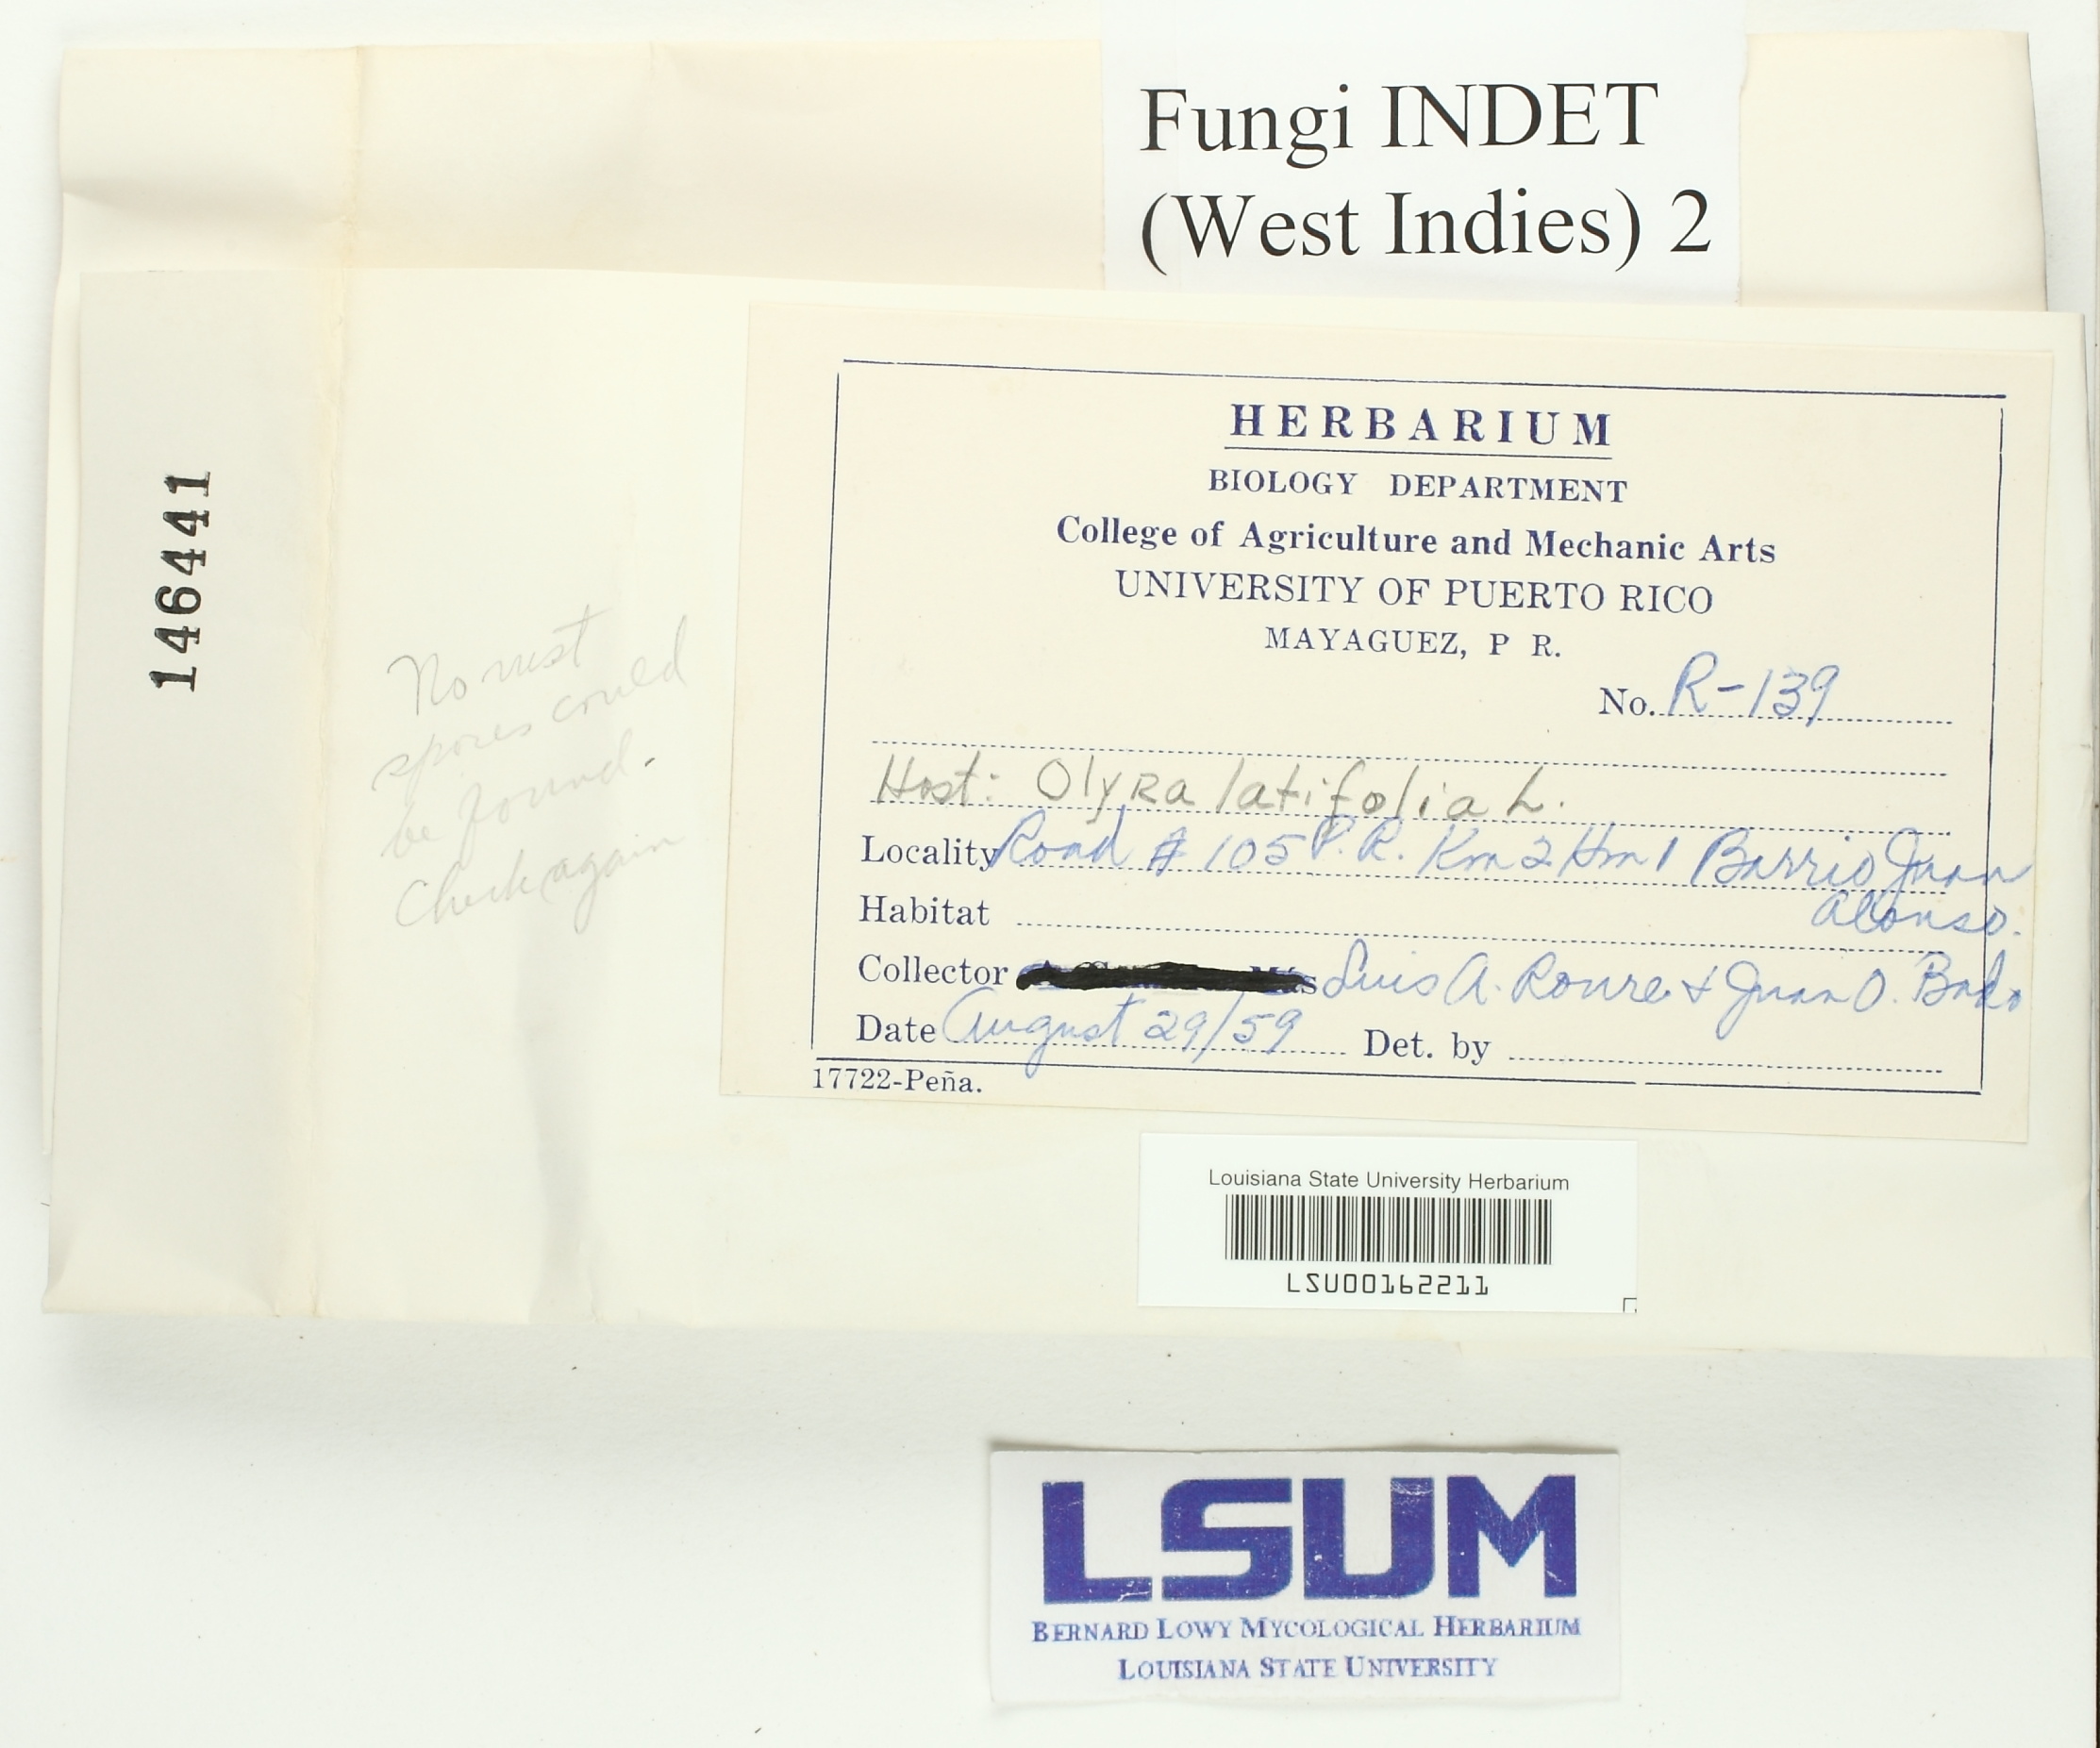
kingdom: Fungi
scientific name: Fungi
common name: Fungi
